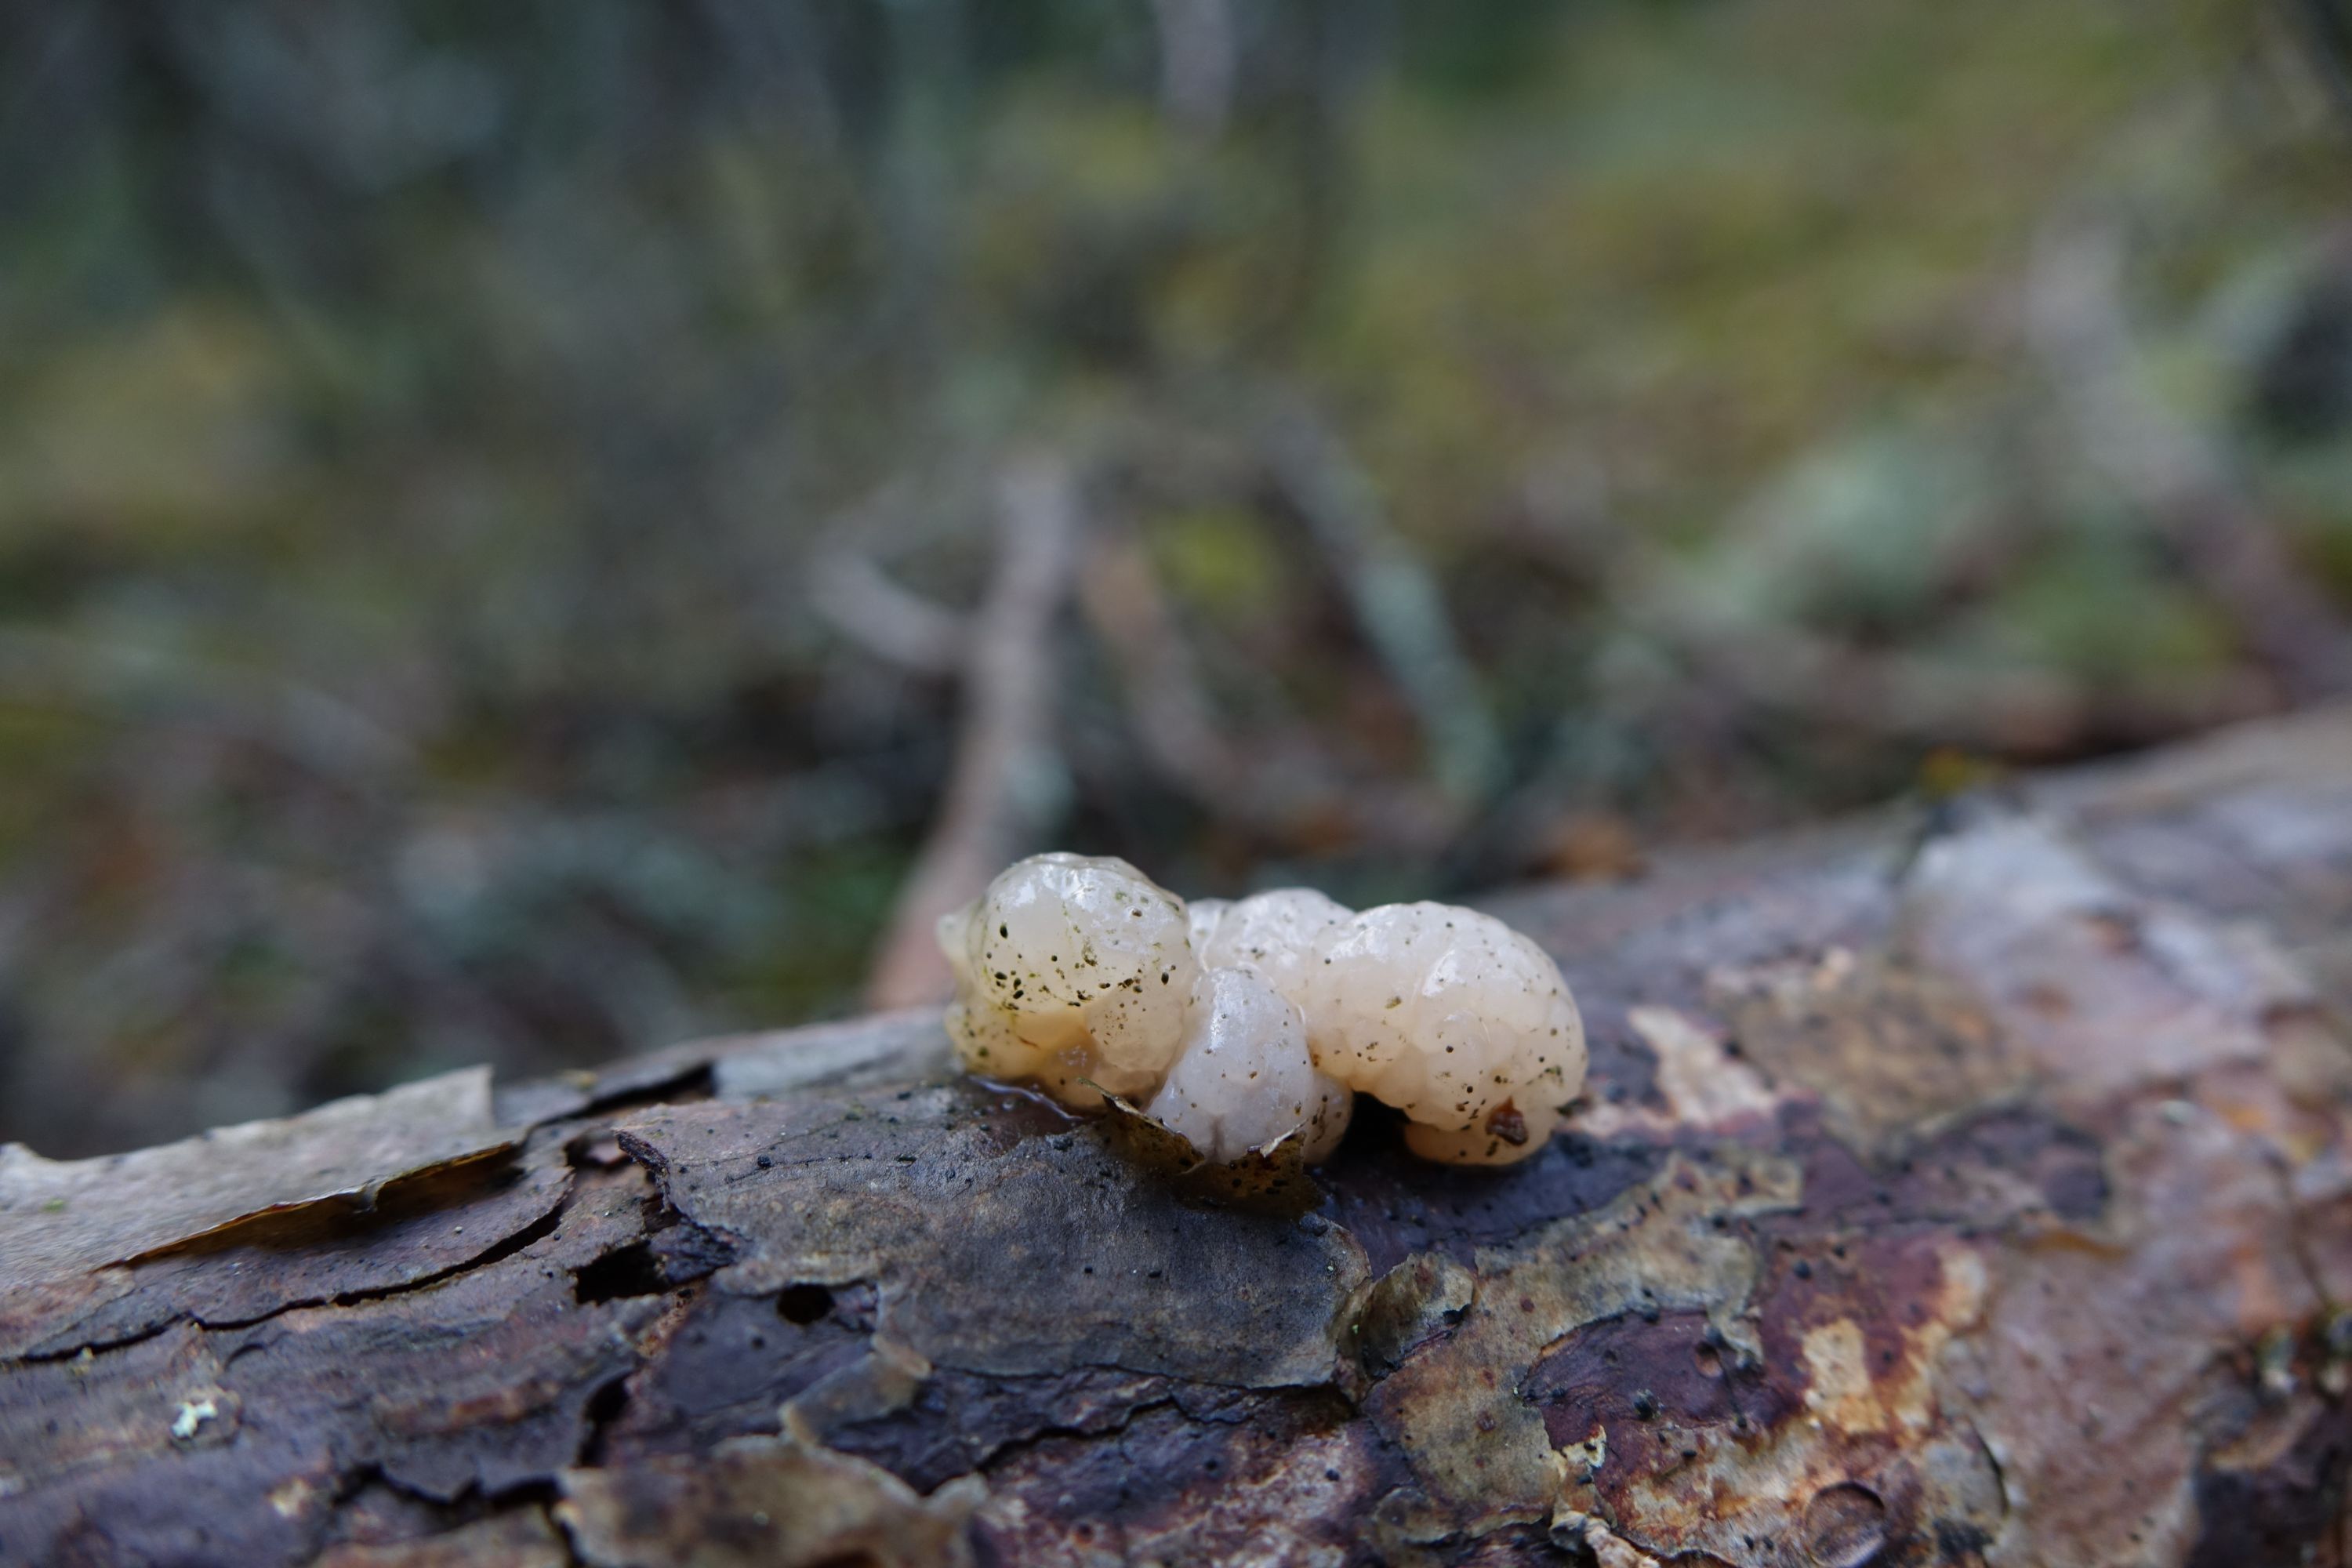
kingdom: Fungi
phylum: Basidiomycota
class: Tremellomycetes
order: Tremellales
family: Naemateliaceae
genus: Naematelia
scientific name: Naematelia encephala
